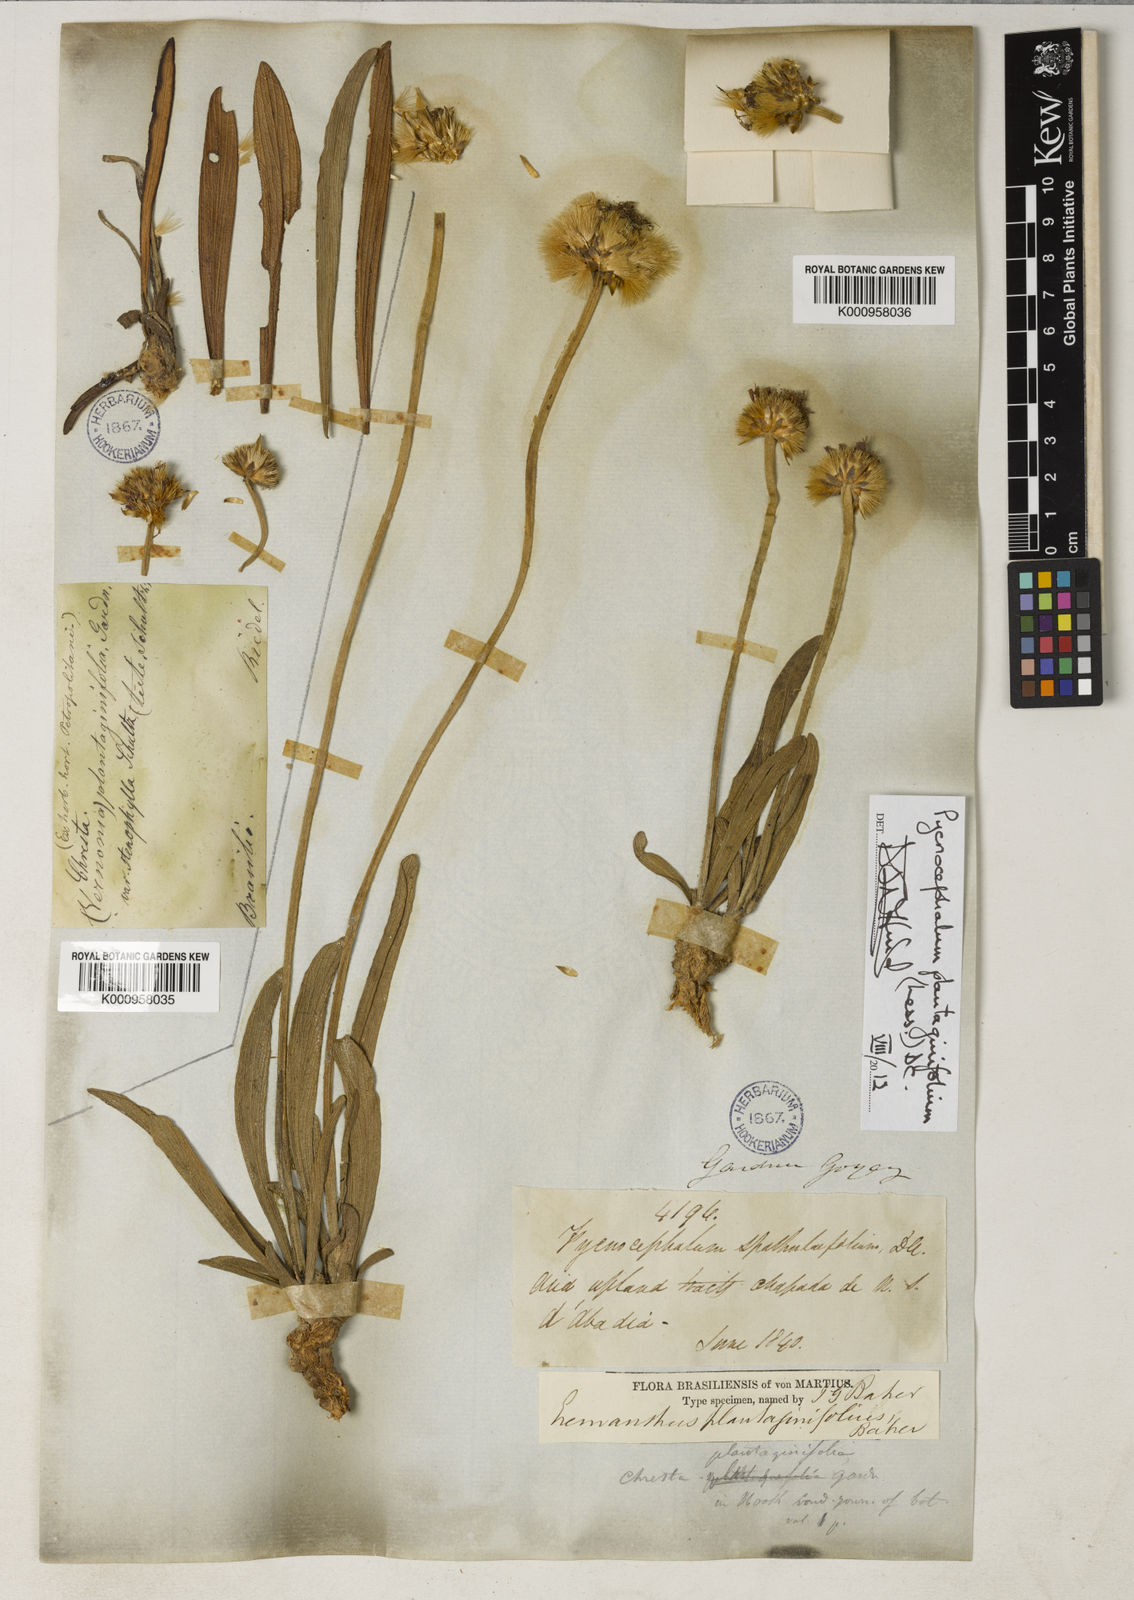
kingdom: Plantae
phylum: Tracheophyta
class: Magnoliopsida
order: Asterales
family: Asteraceae
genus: Chresta
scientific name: Chresta plantaginifolia
